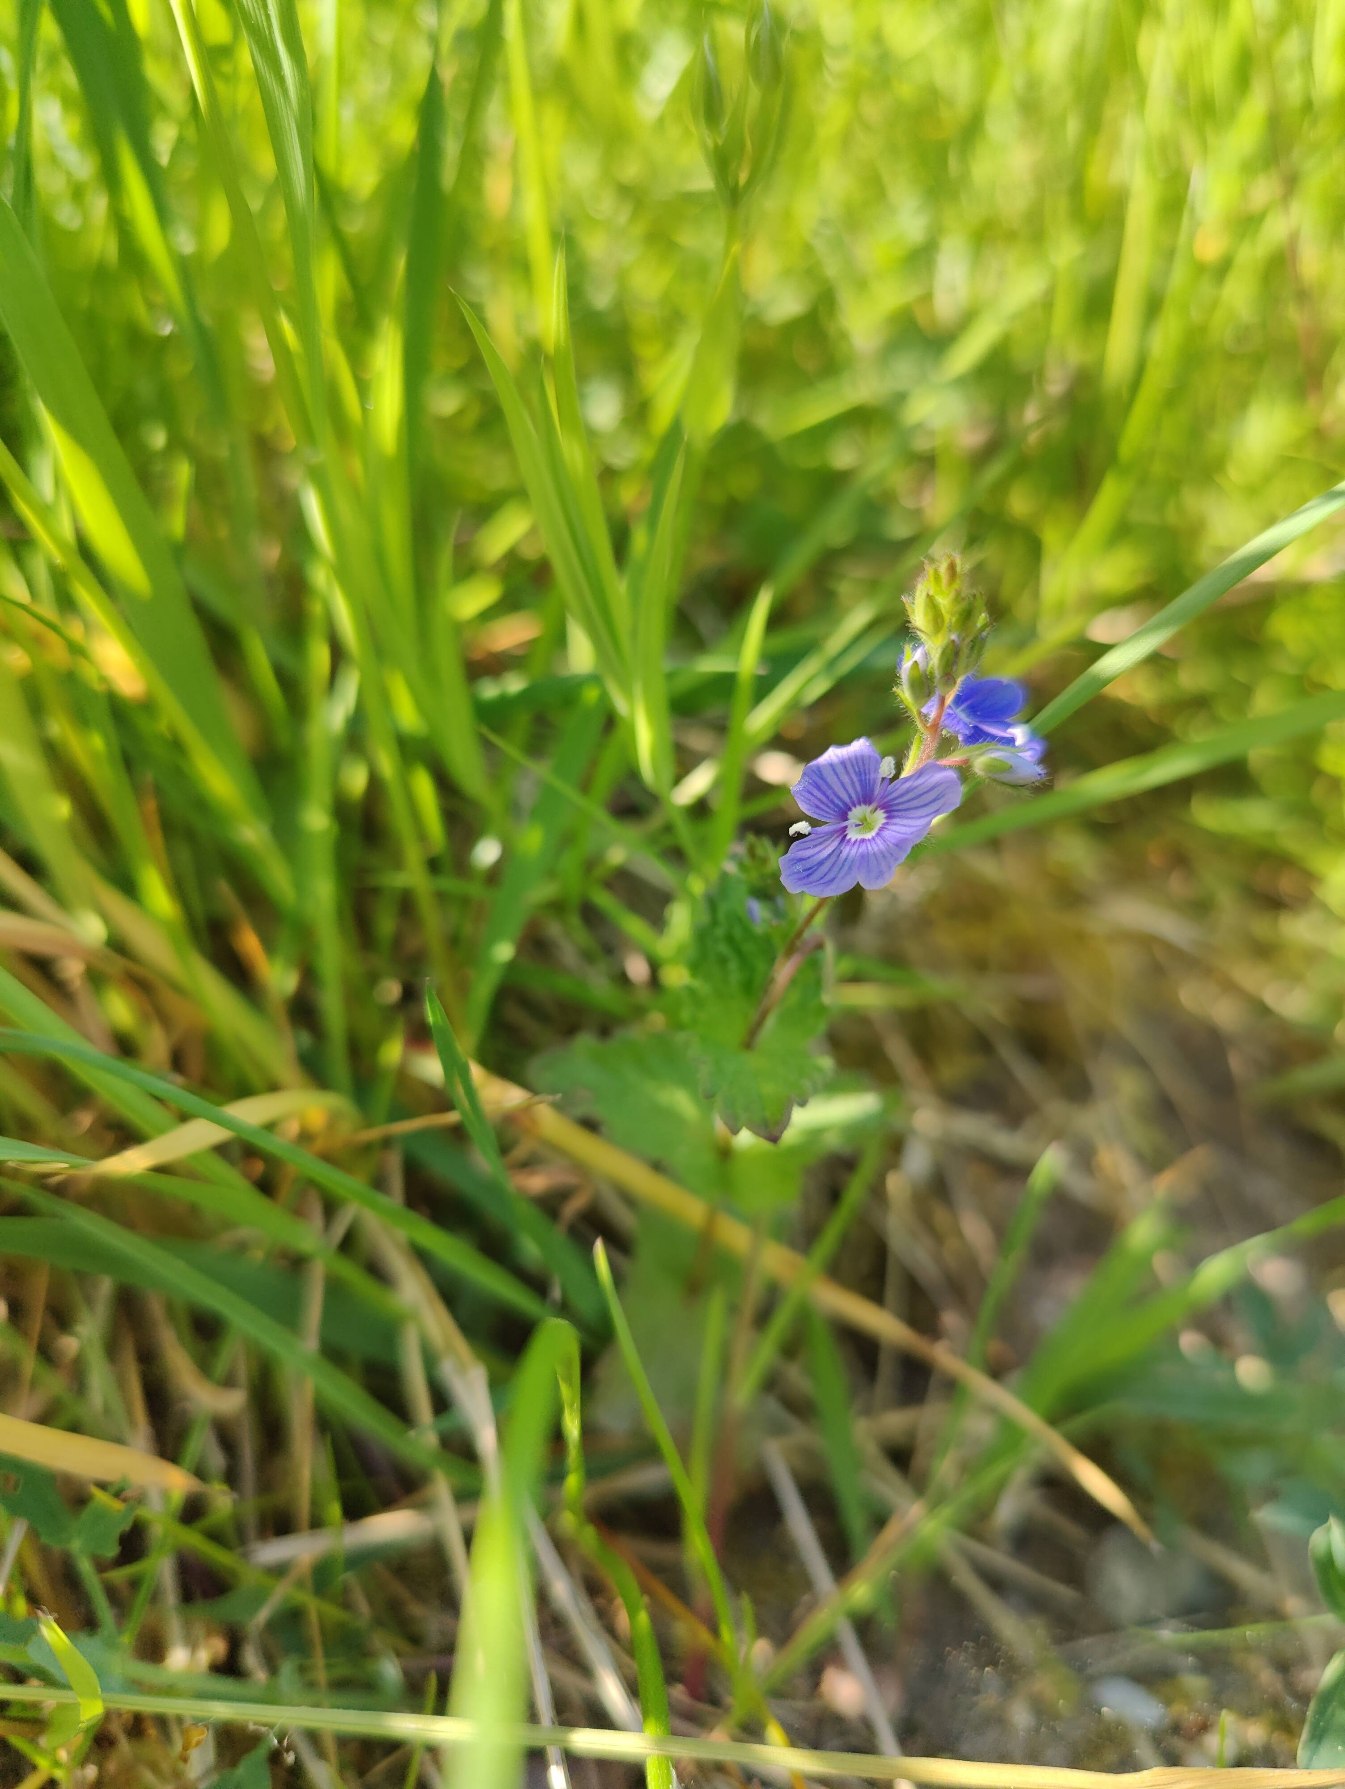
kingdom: Plantae
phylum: Tracheophyta
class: Magnoliopsida
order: Lamiales
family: Plantaginaceae
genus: Veronica
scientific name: Veronica chamaedrys
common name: Tveskægget ærenpris
